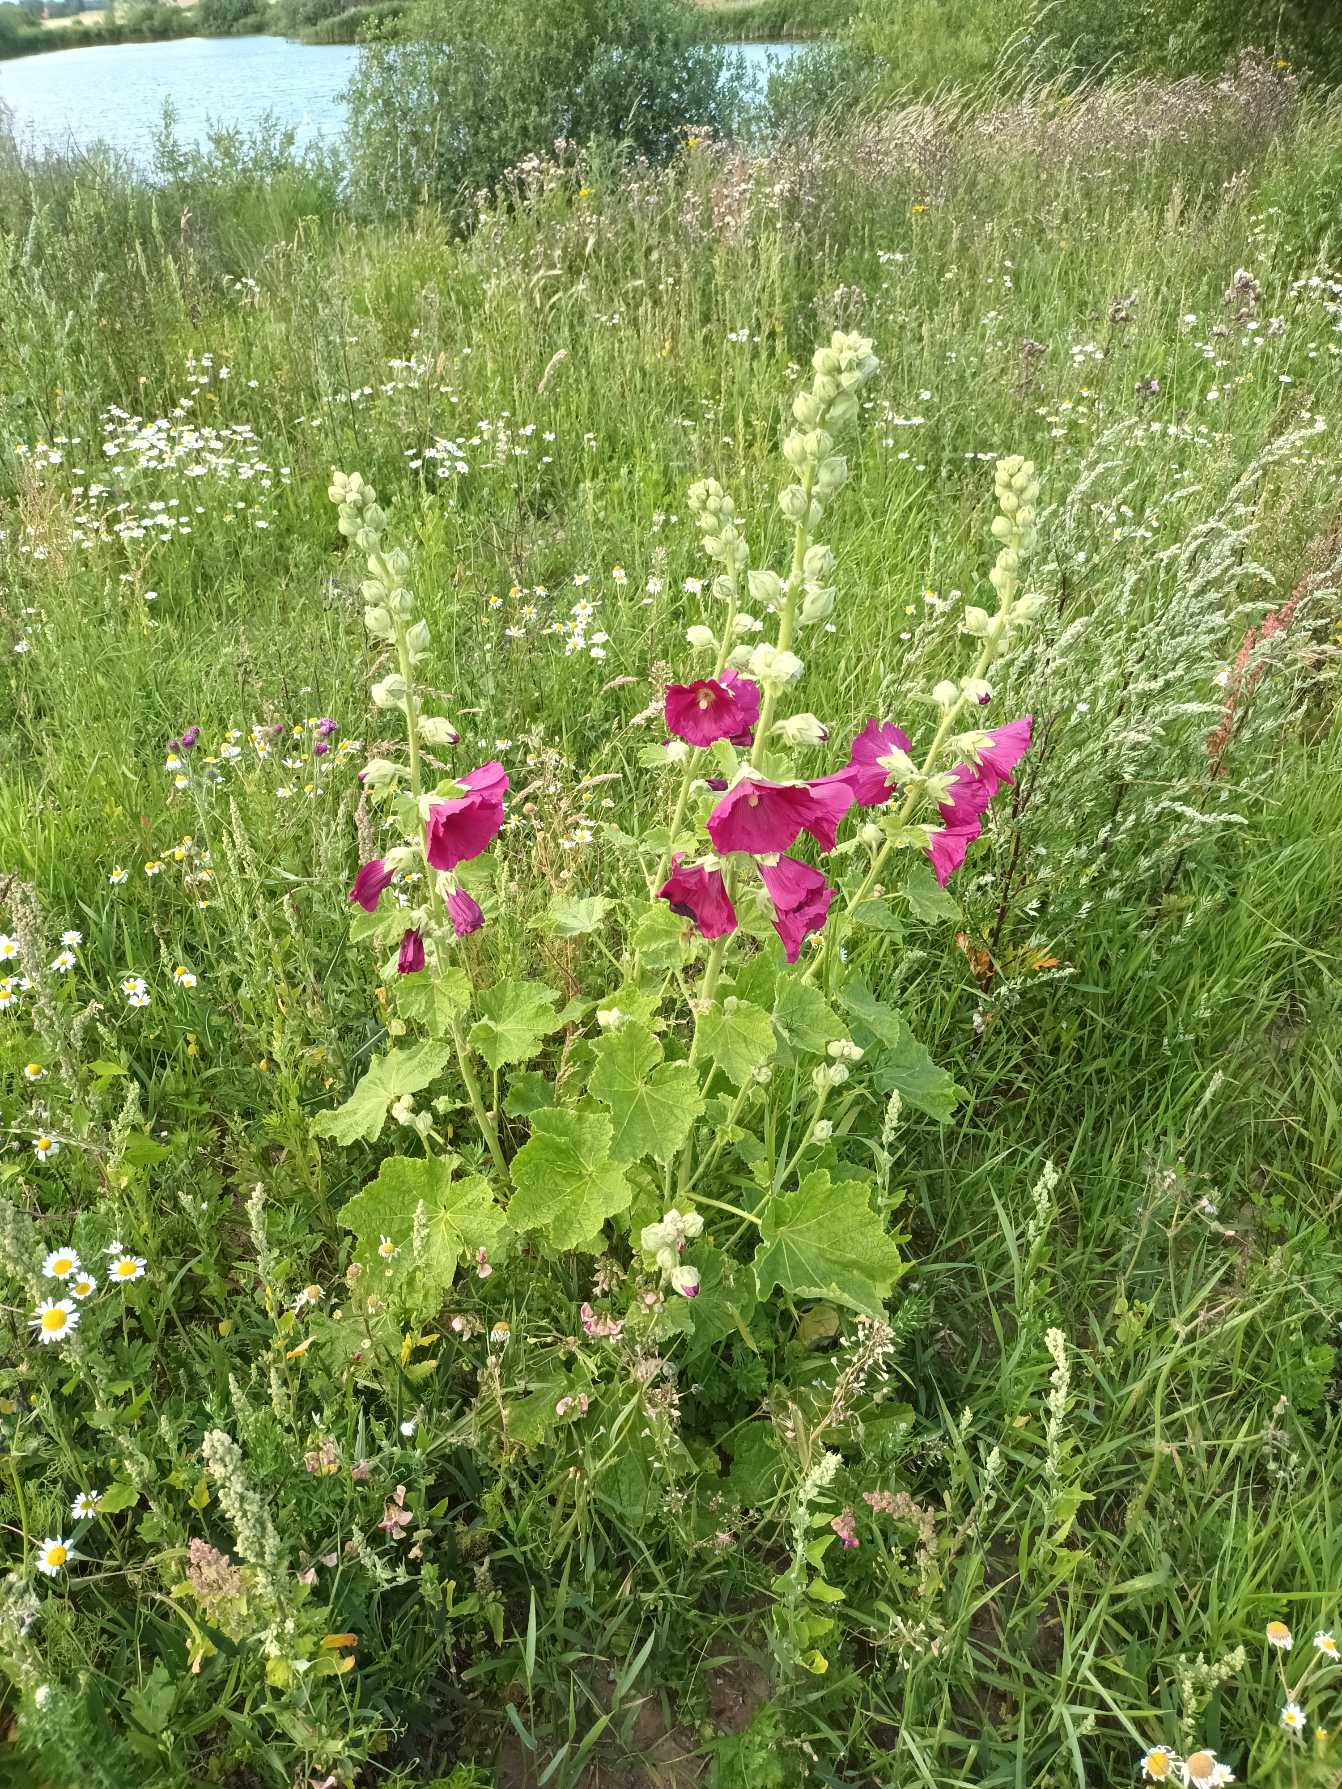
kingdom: Plantae
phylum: Tracheophyta
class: Magnoliopsida
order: Malvales
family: Malvaceae
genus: Alcea
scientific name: Alcea rosea
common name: Have-stokrose
